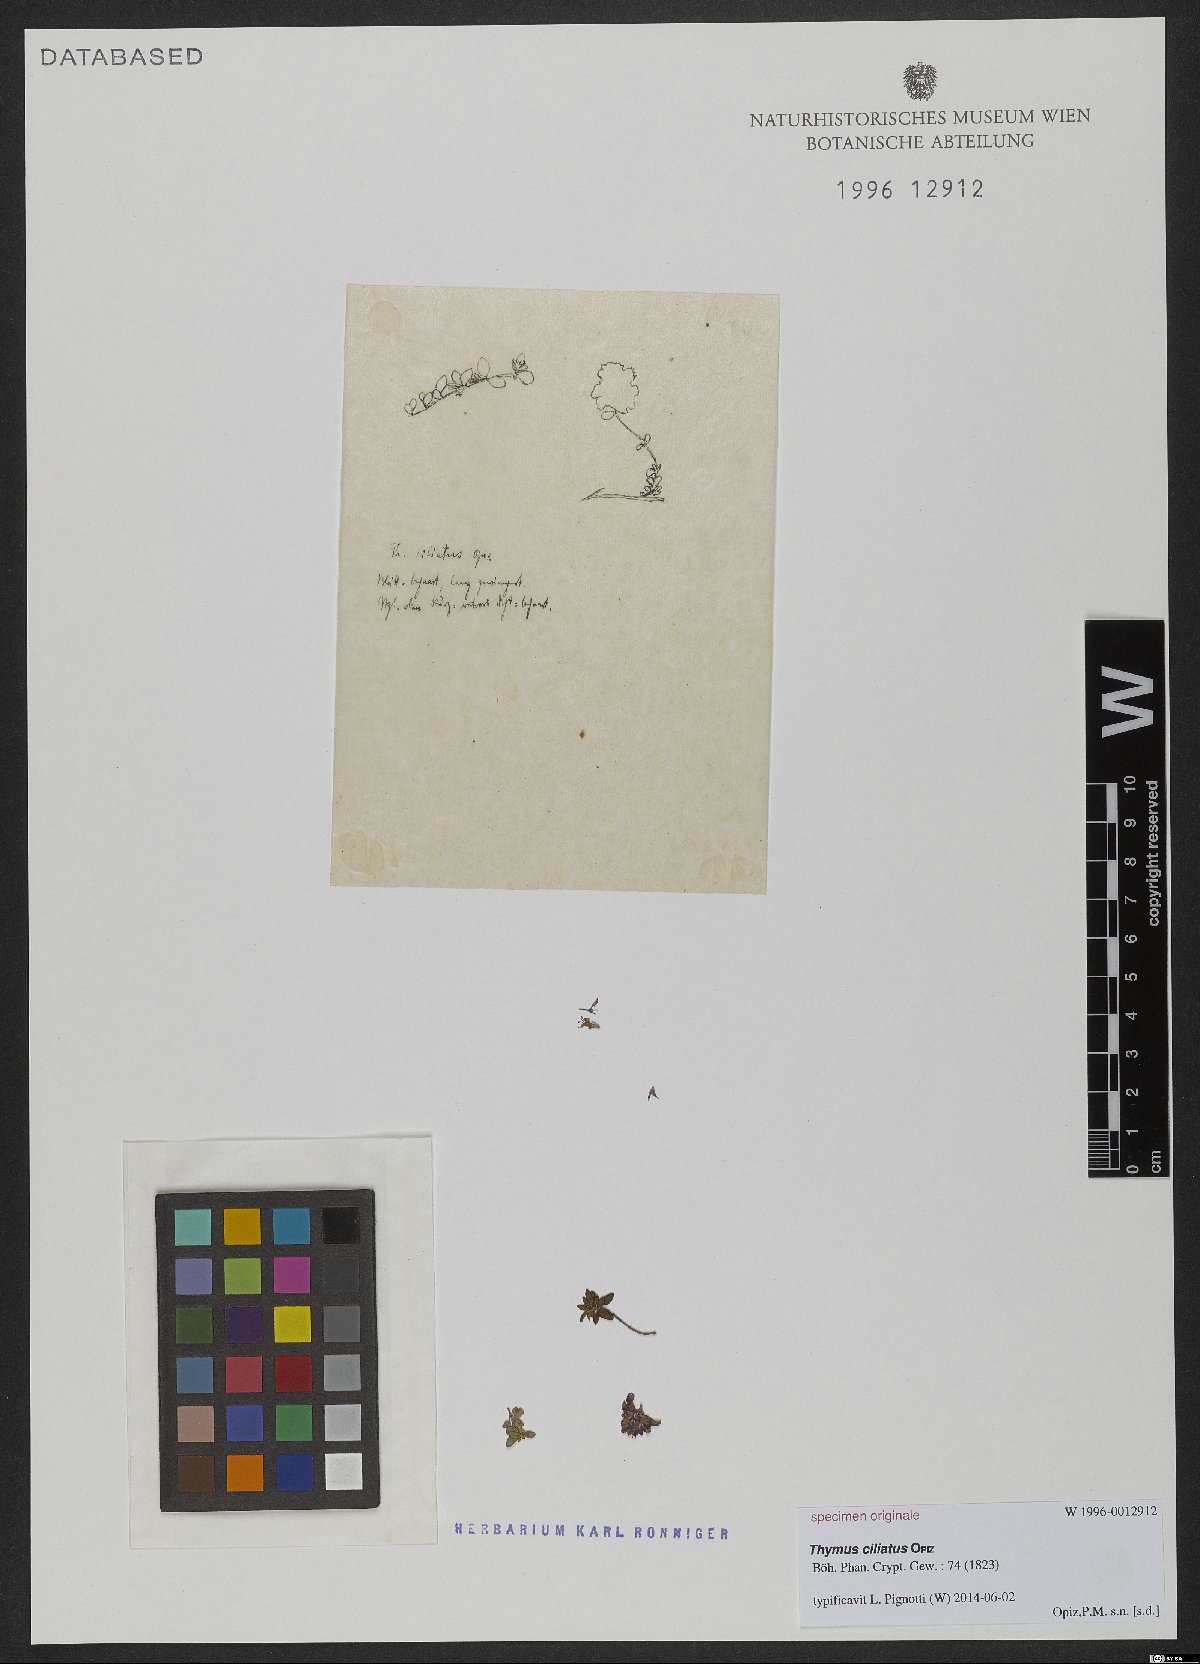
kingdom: Plantae
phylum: Tracheophyta
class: Magnoliopsida
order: Lamiales
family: Lamiaceae
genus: Thymus
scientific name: Thymus praecox
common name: Wild thyme
